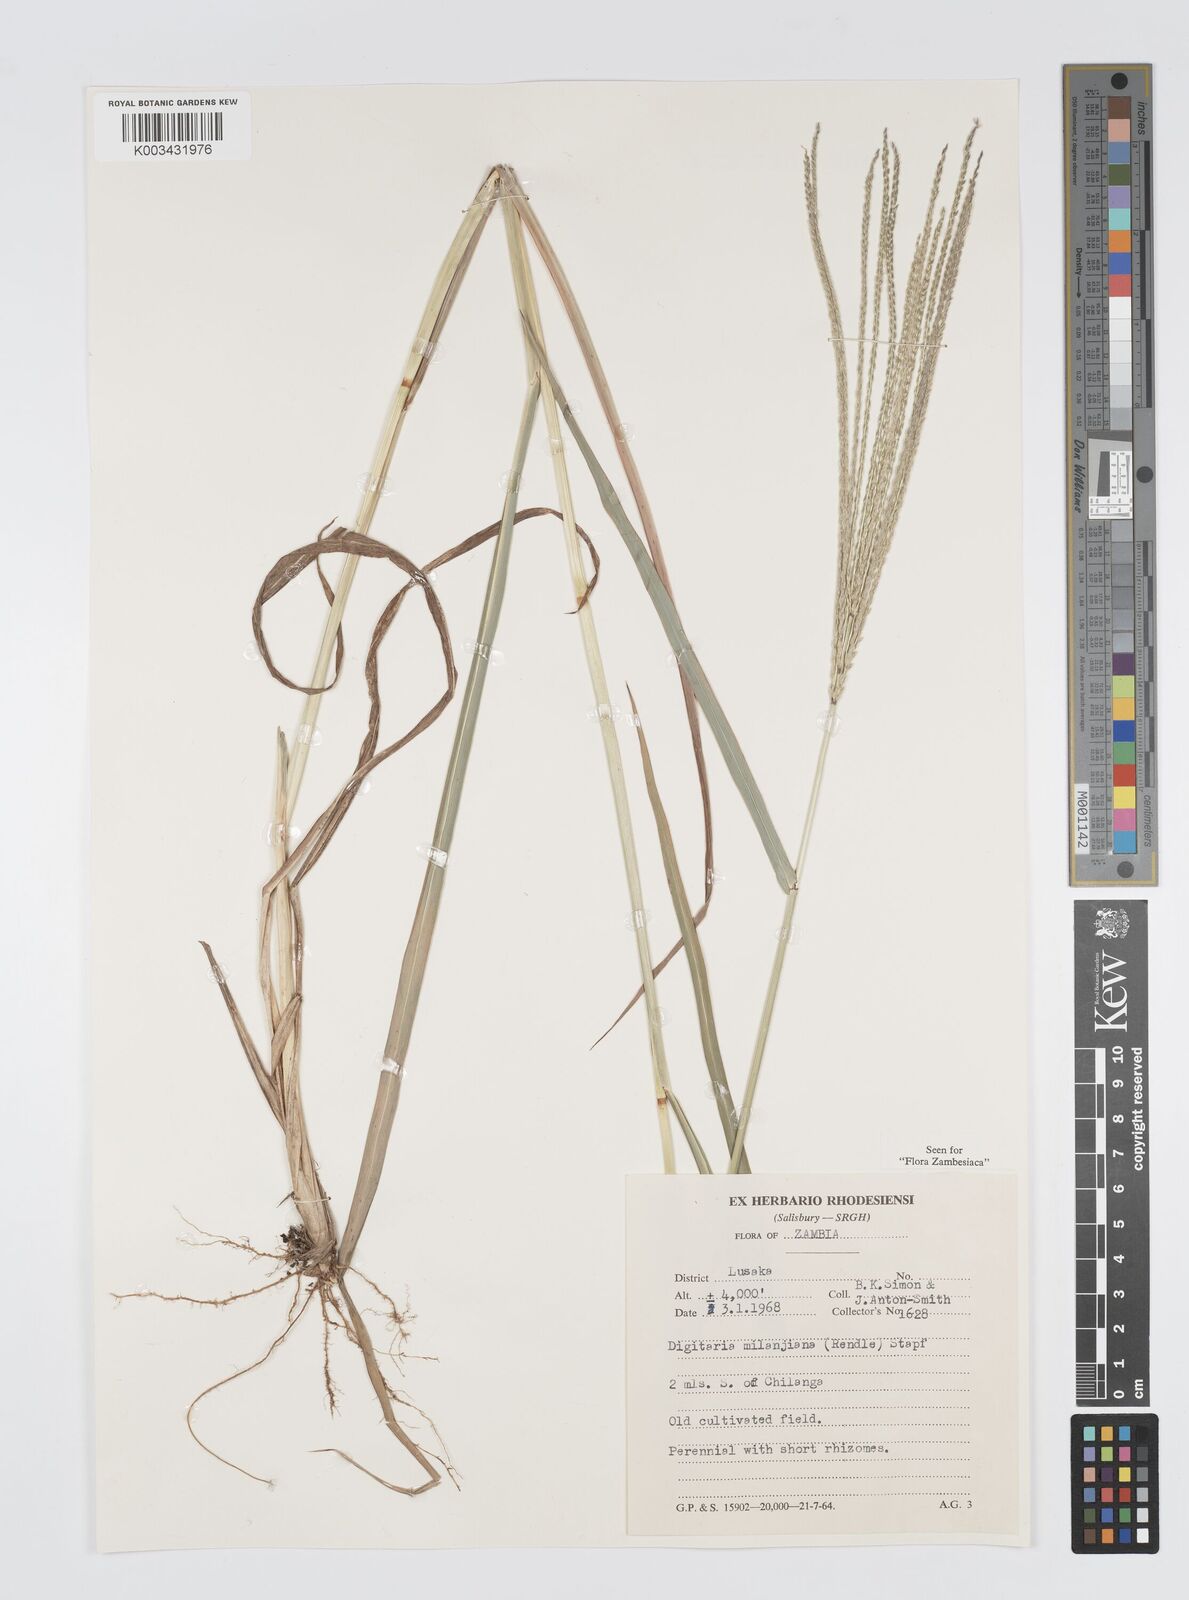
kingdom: Plantae
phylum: Tracheophyta
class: Liliopsida
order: Poales
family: Poaceae
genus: Digitaria
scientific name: Digitaria milanjiana
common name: Madagascar crabgrass
